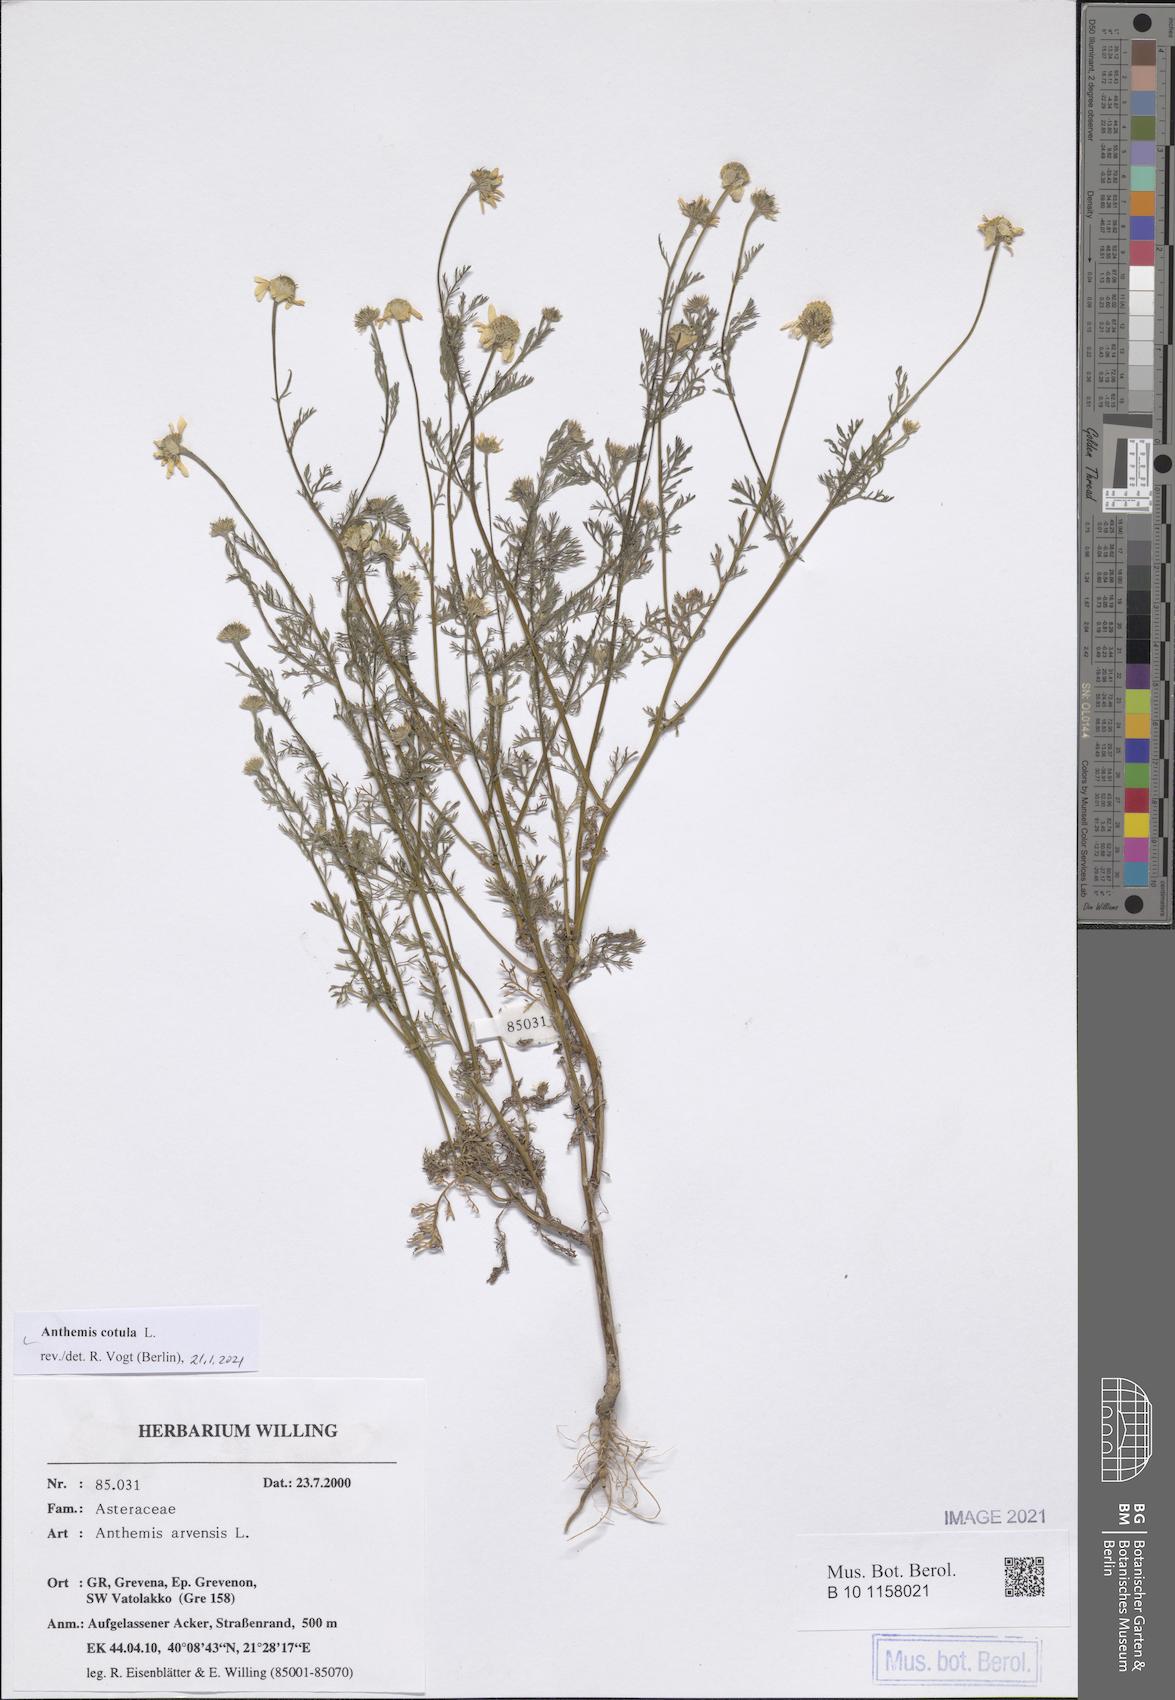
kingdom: Plantae
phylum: Tracheophyta
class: Magnoliopsida
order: Asterales
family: Asteraceae
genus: Anthemis
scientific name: Anthemis cotula
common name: Stinking chamomile
